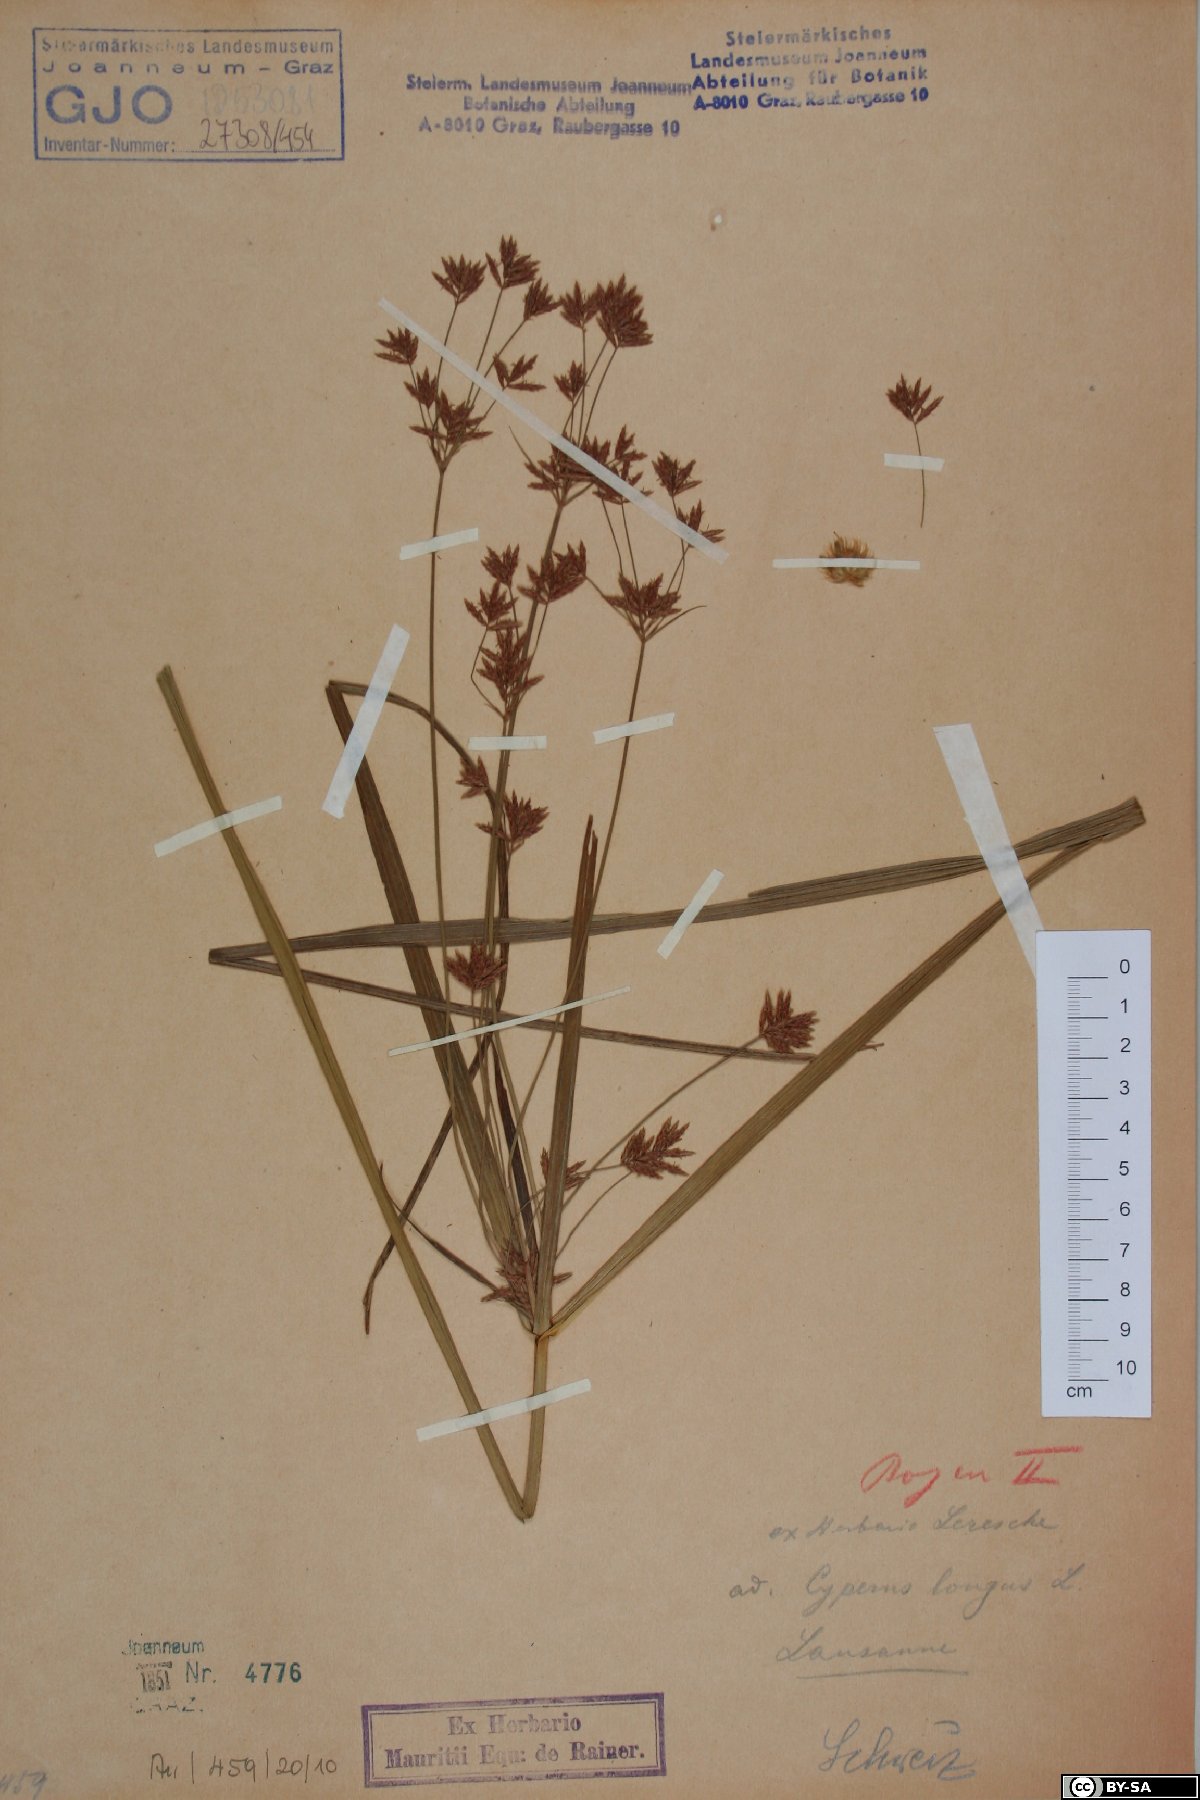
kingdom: Plantae
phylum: Tracheophyta
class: Liliopsida
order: Poales
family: Cyperaceae
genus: Cyperus
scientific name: Cyperus longus
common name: Galingale
